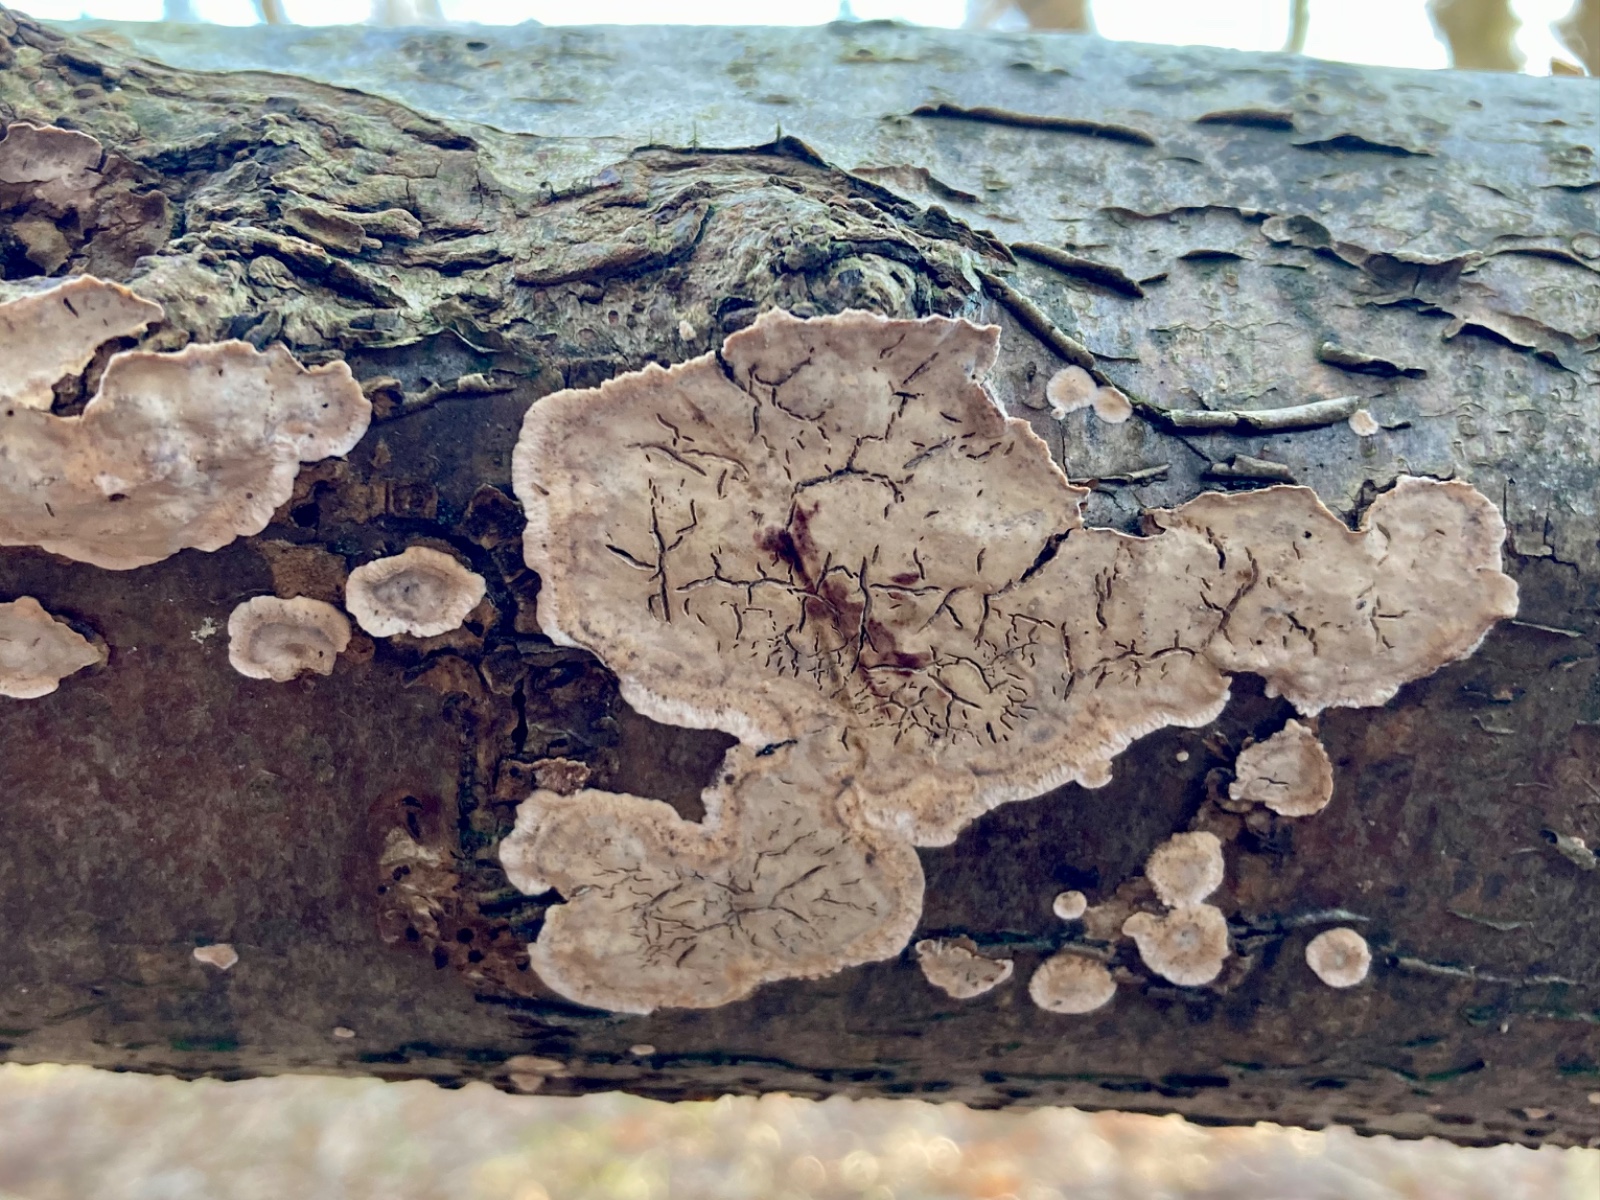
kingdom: Fungi
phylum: Basidiomycota
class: Agaricomycetes
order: Russulales
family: Stereaceae
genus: Stereum
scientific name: Stereum rugosum
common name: rynket lædersvamp
